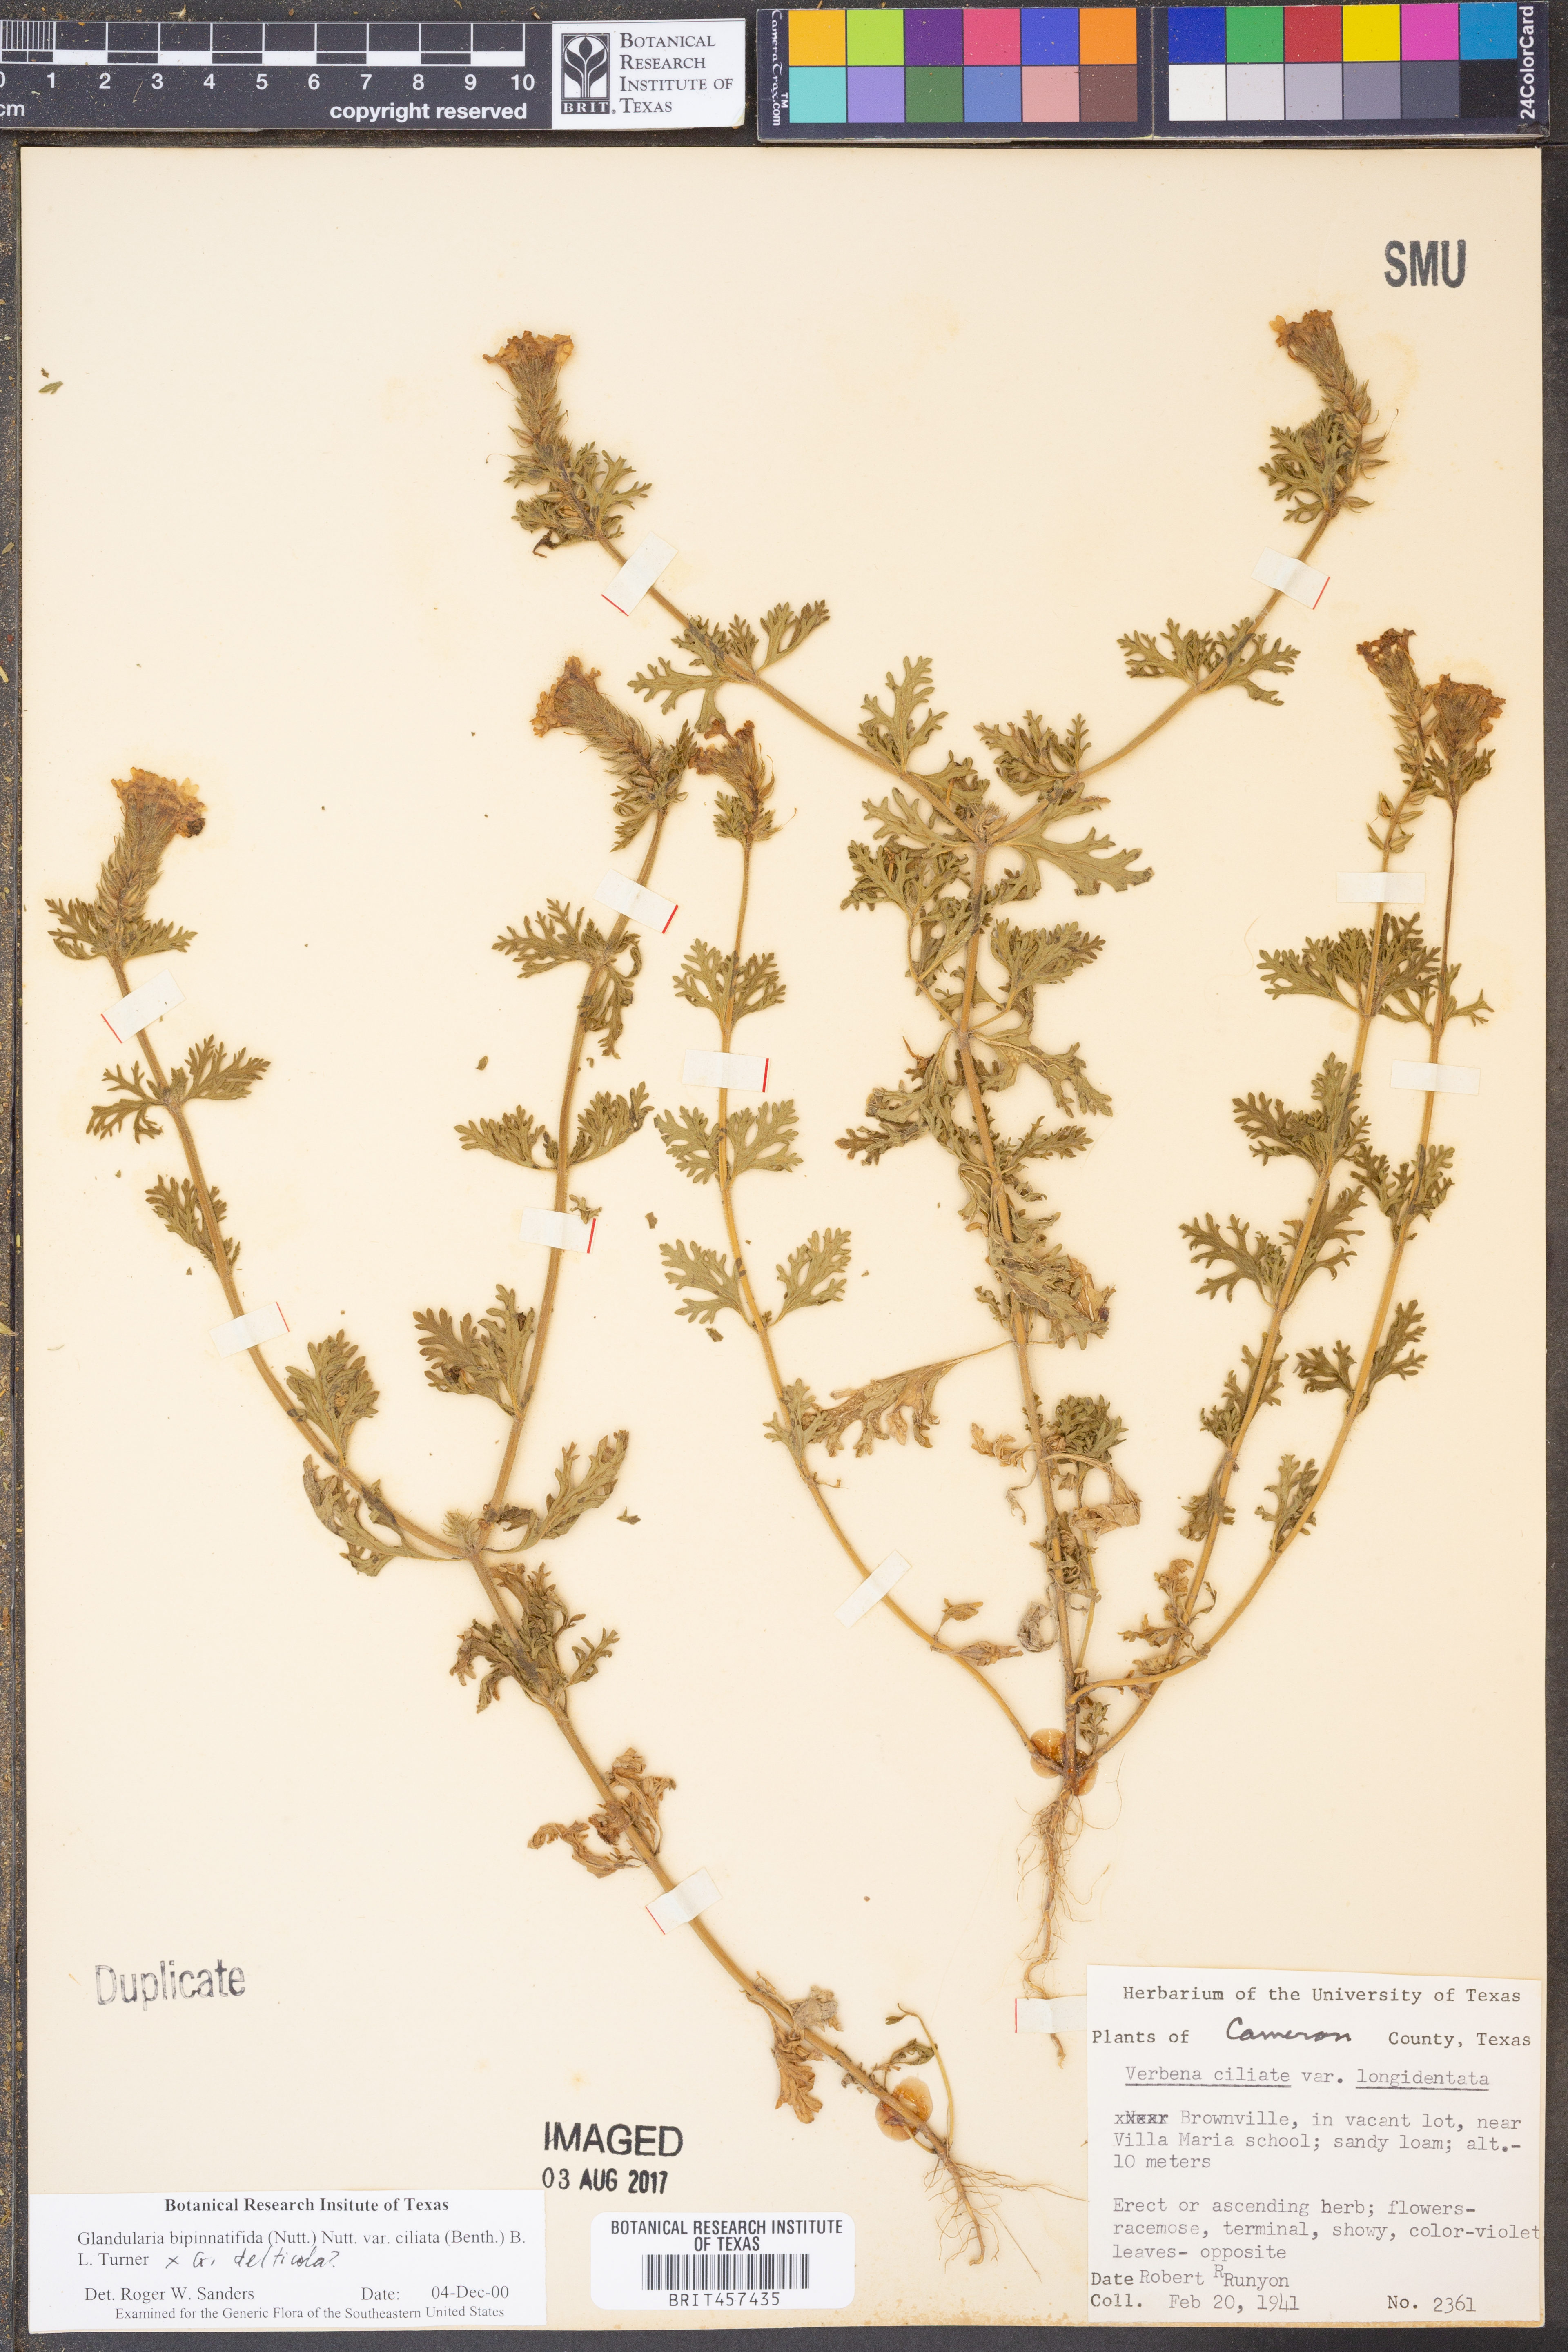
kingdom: Plantae
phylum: Tracheophyta
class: Magnoliopsida
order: Lamiales
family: Verbenaceae
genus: Verbena
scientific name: Verbena bipinnatifida
